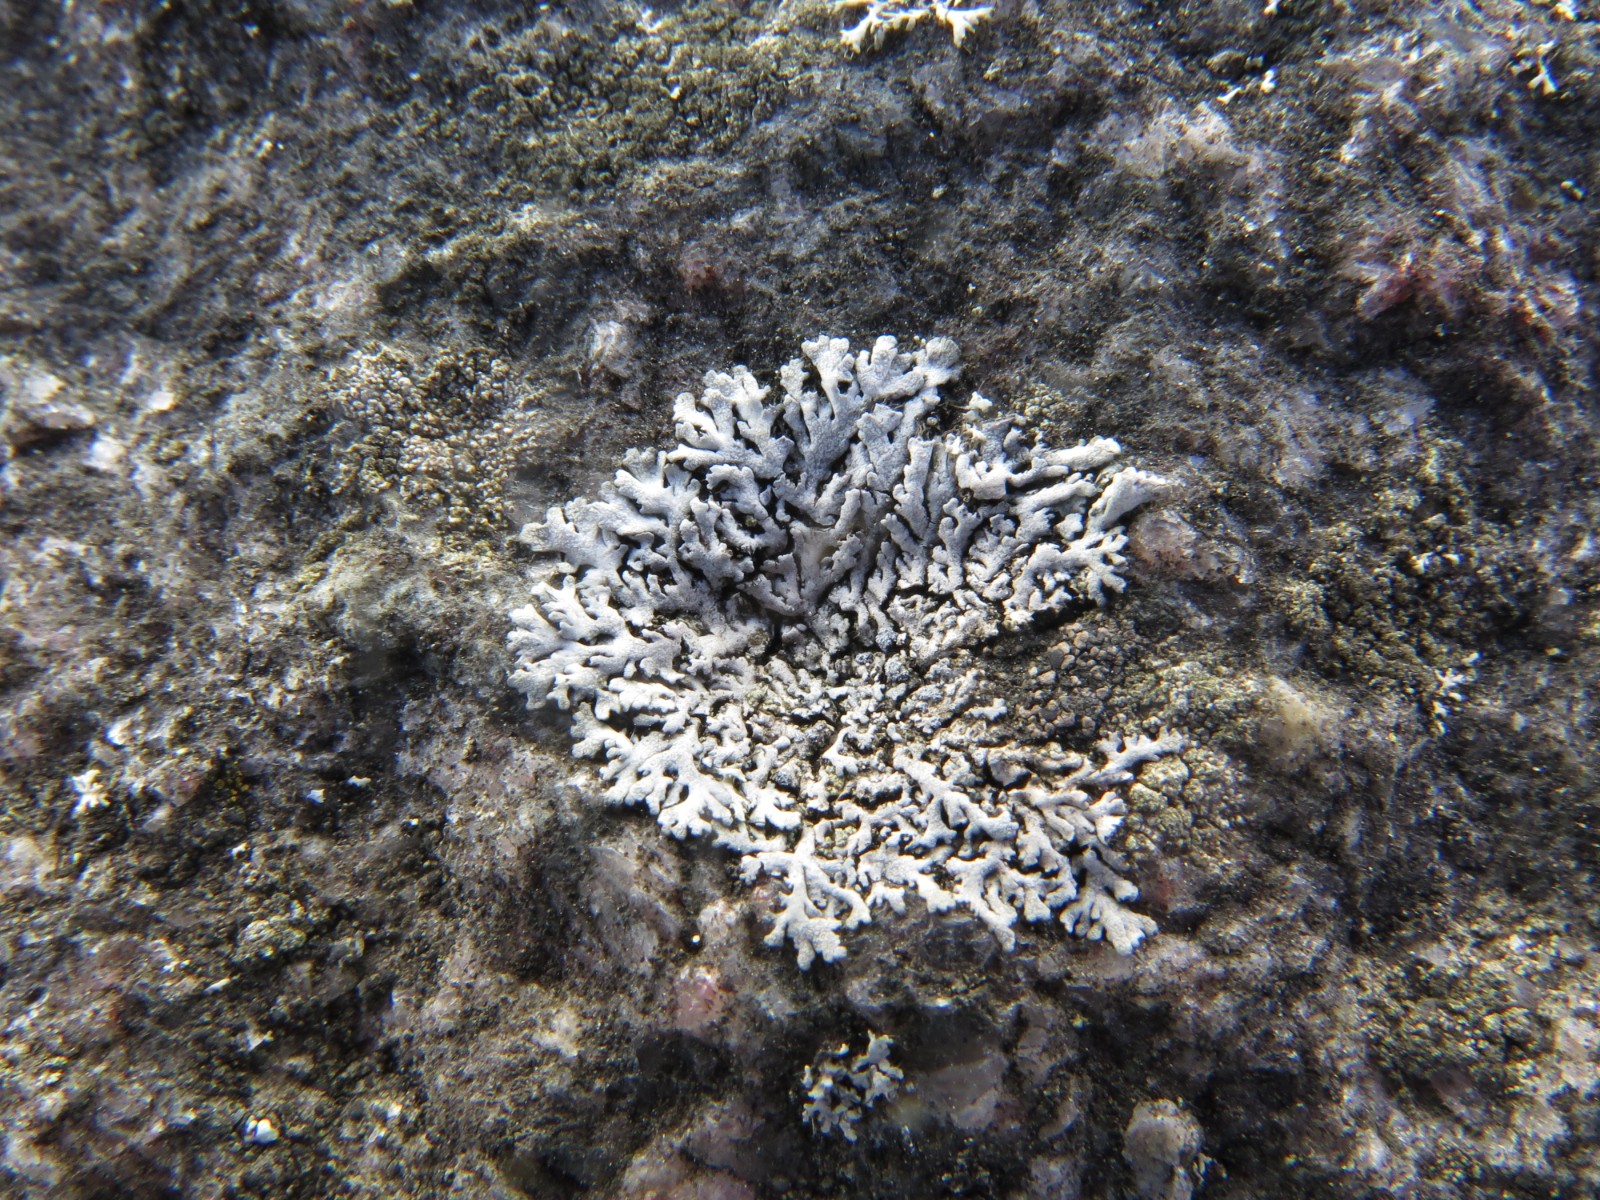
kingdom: Fungi
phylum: Ascomycota
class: Lecanoromycetes
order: Caliciales
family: Physciaceae
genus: Physcia
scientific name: Physcia dubia
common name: fuglestens-rosetlav
